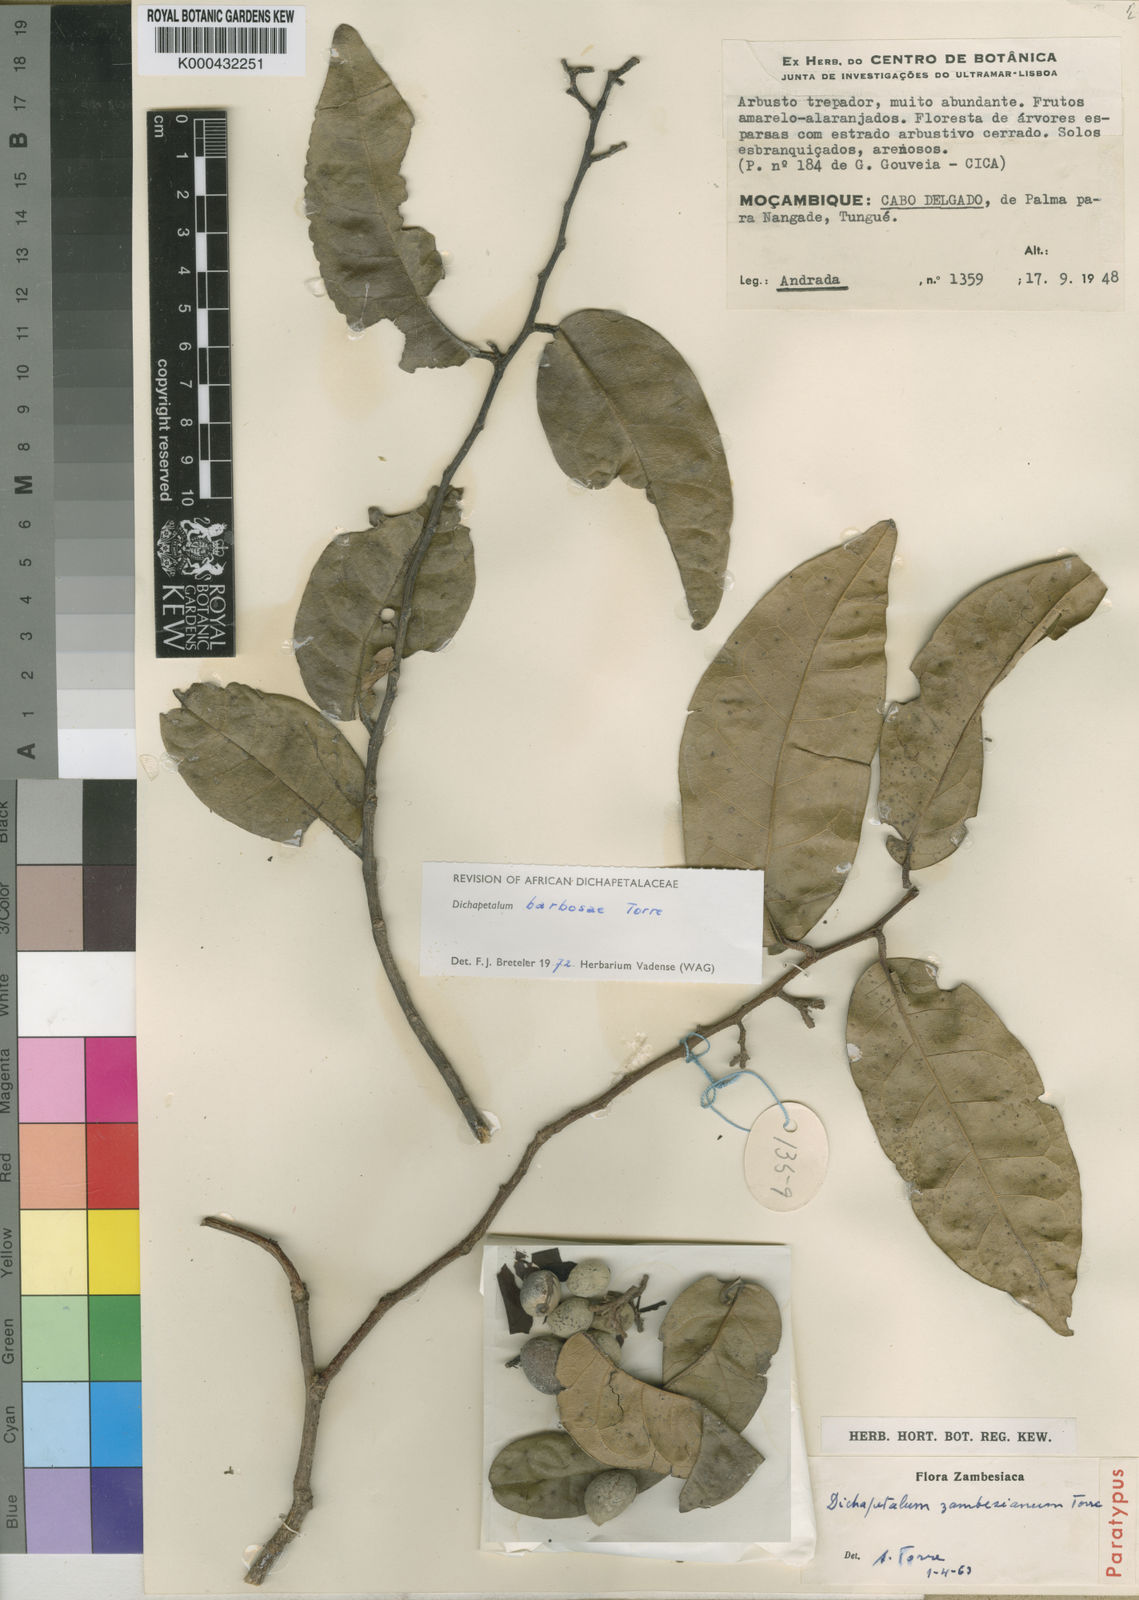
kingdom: Plantae
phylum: Tracheophyta
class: Magnoliopsida
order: Malpighiales
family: Dichapetalaceae
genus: Dichapetalum
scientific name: Dichapetalum barbosae
